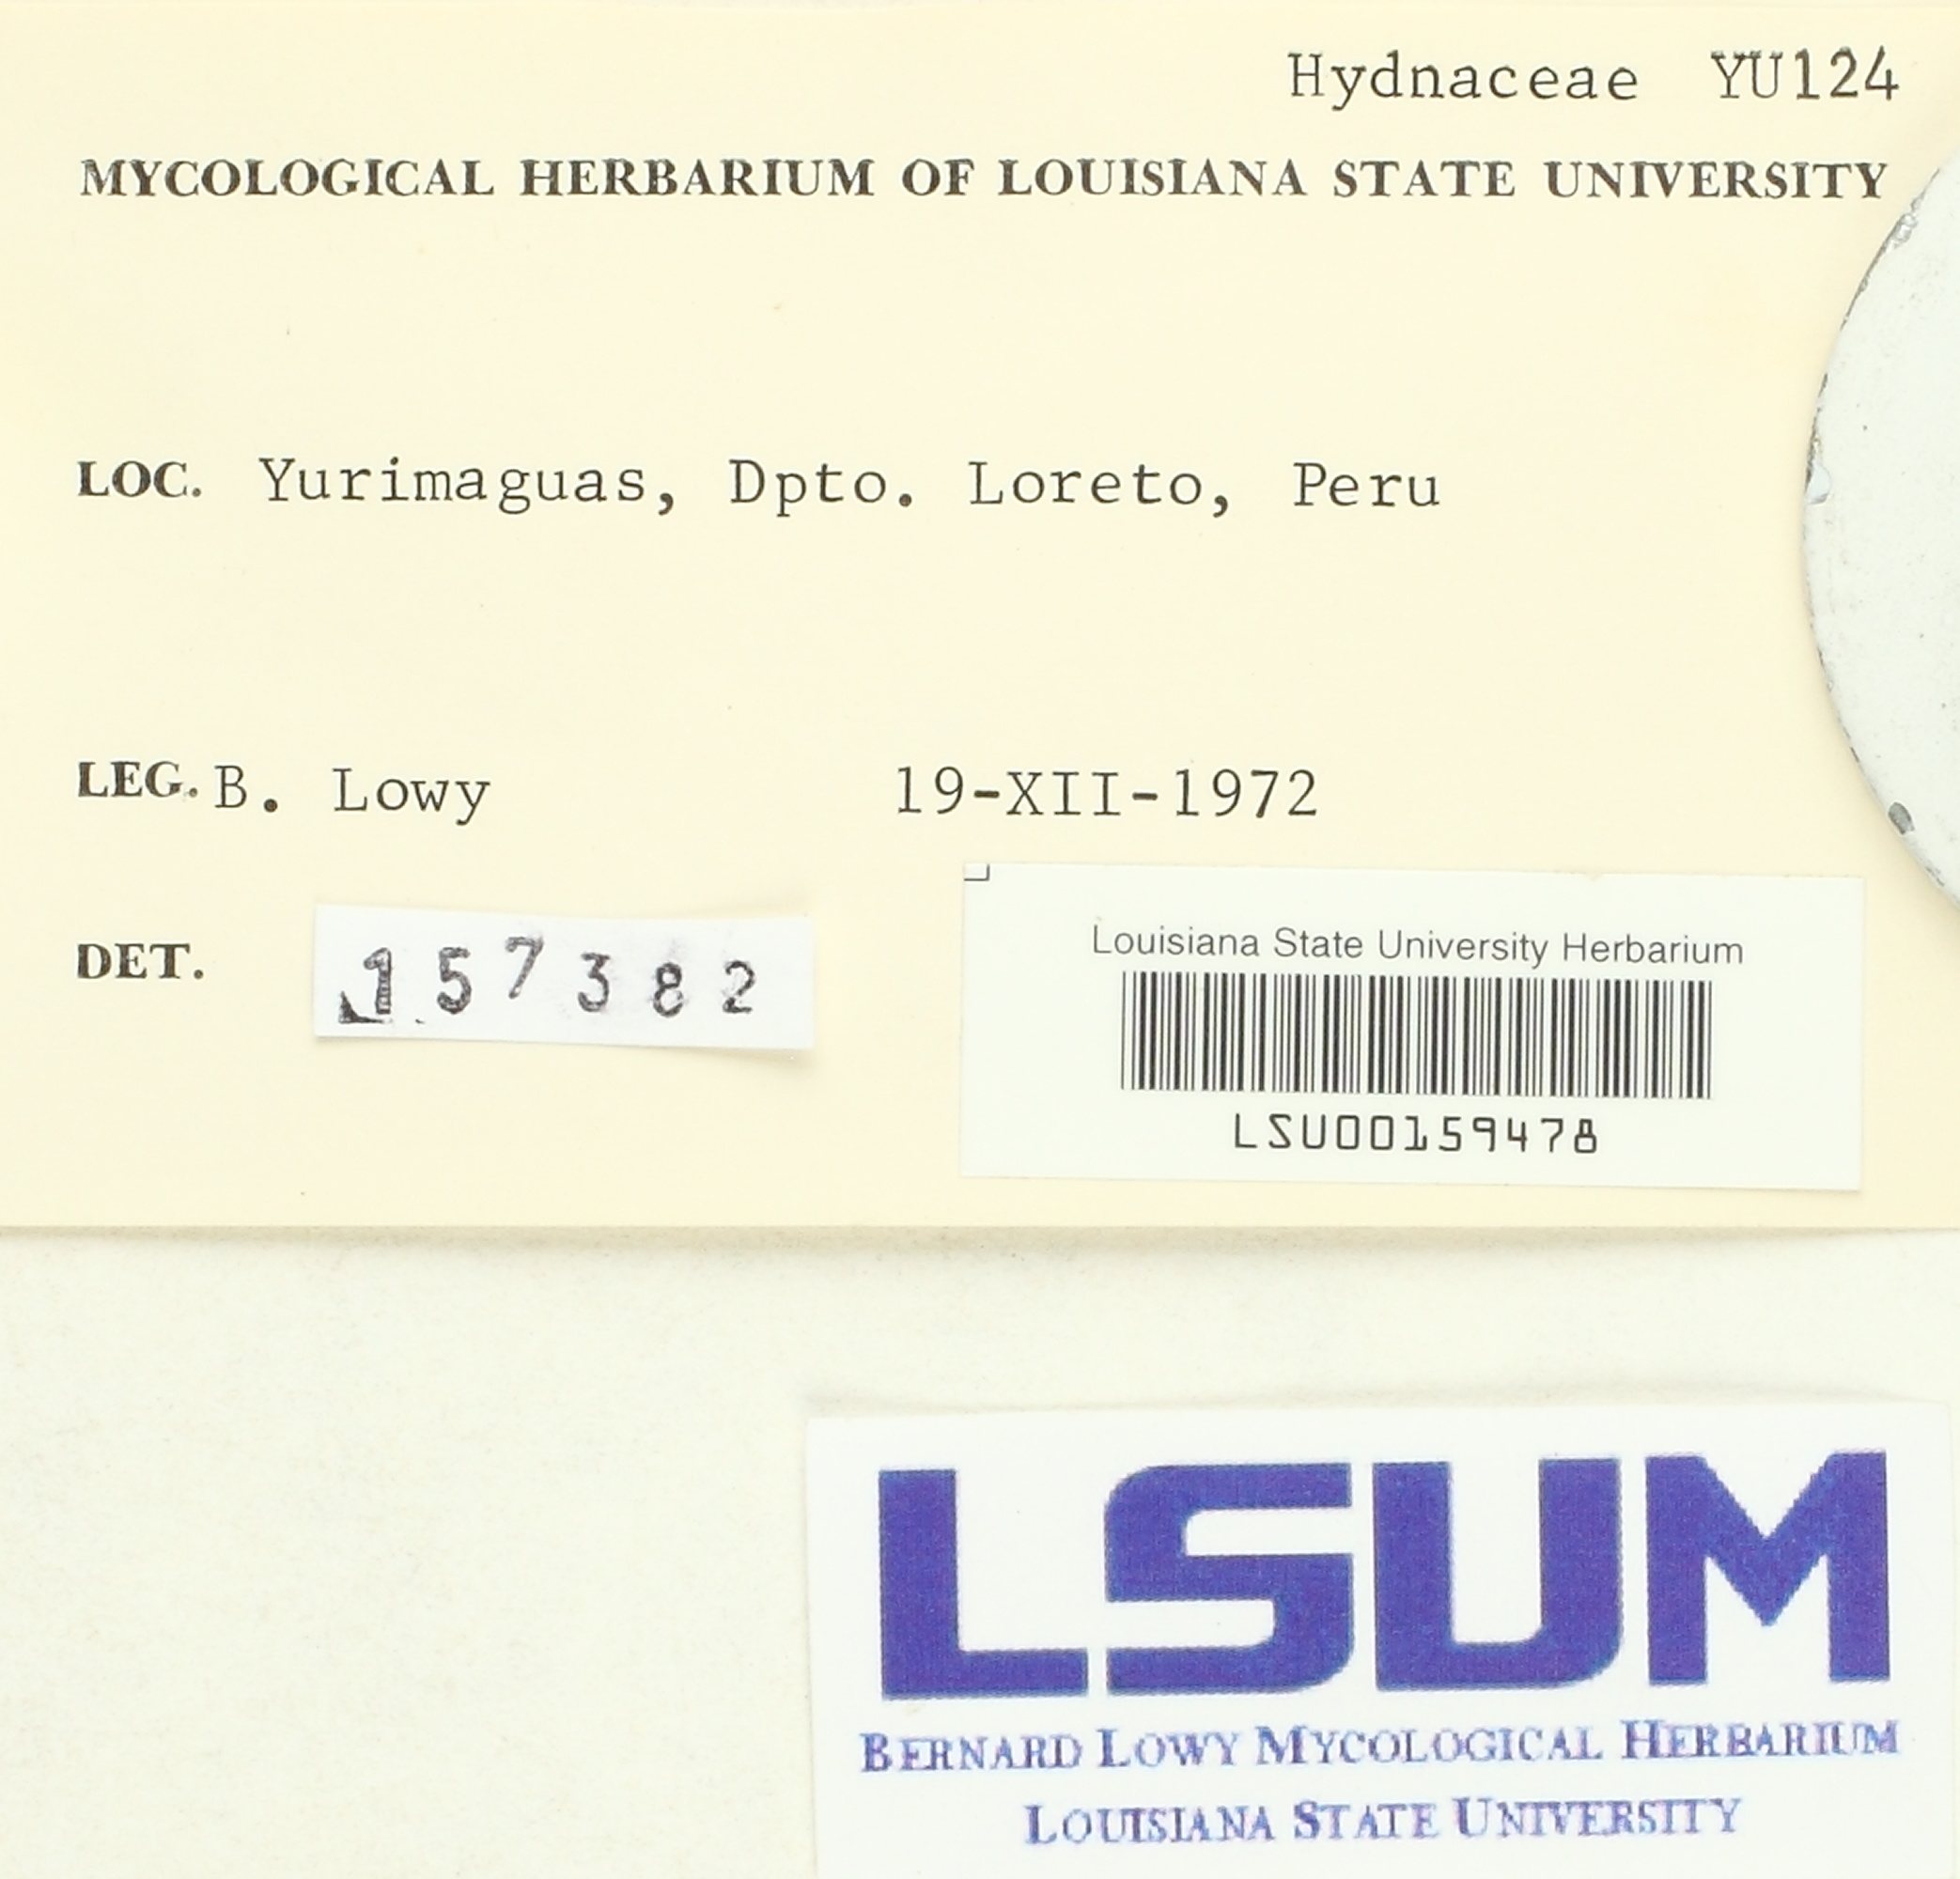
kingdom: Fungi
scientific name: Fungi
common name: Fungi
